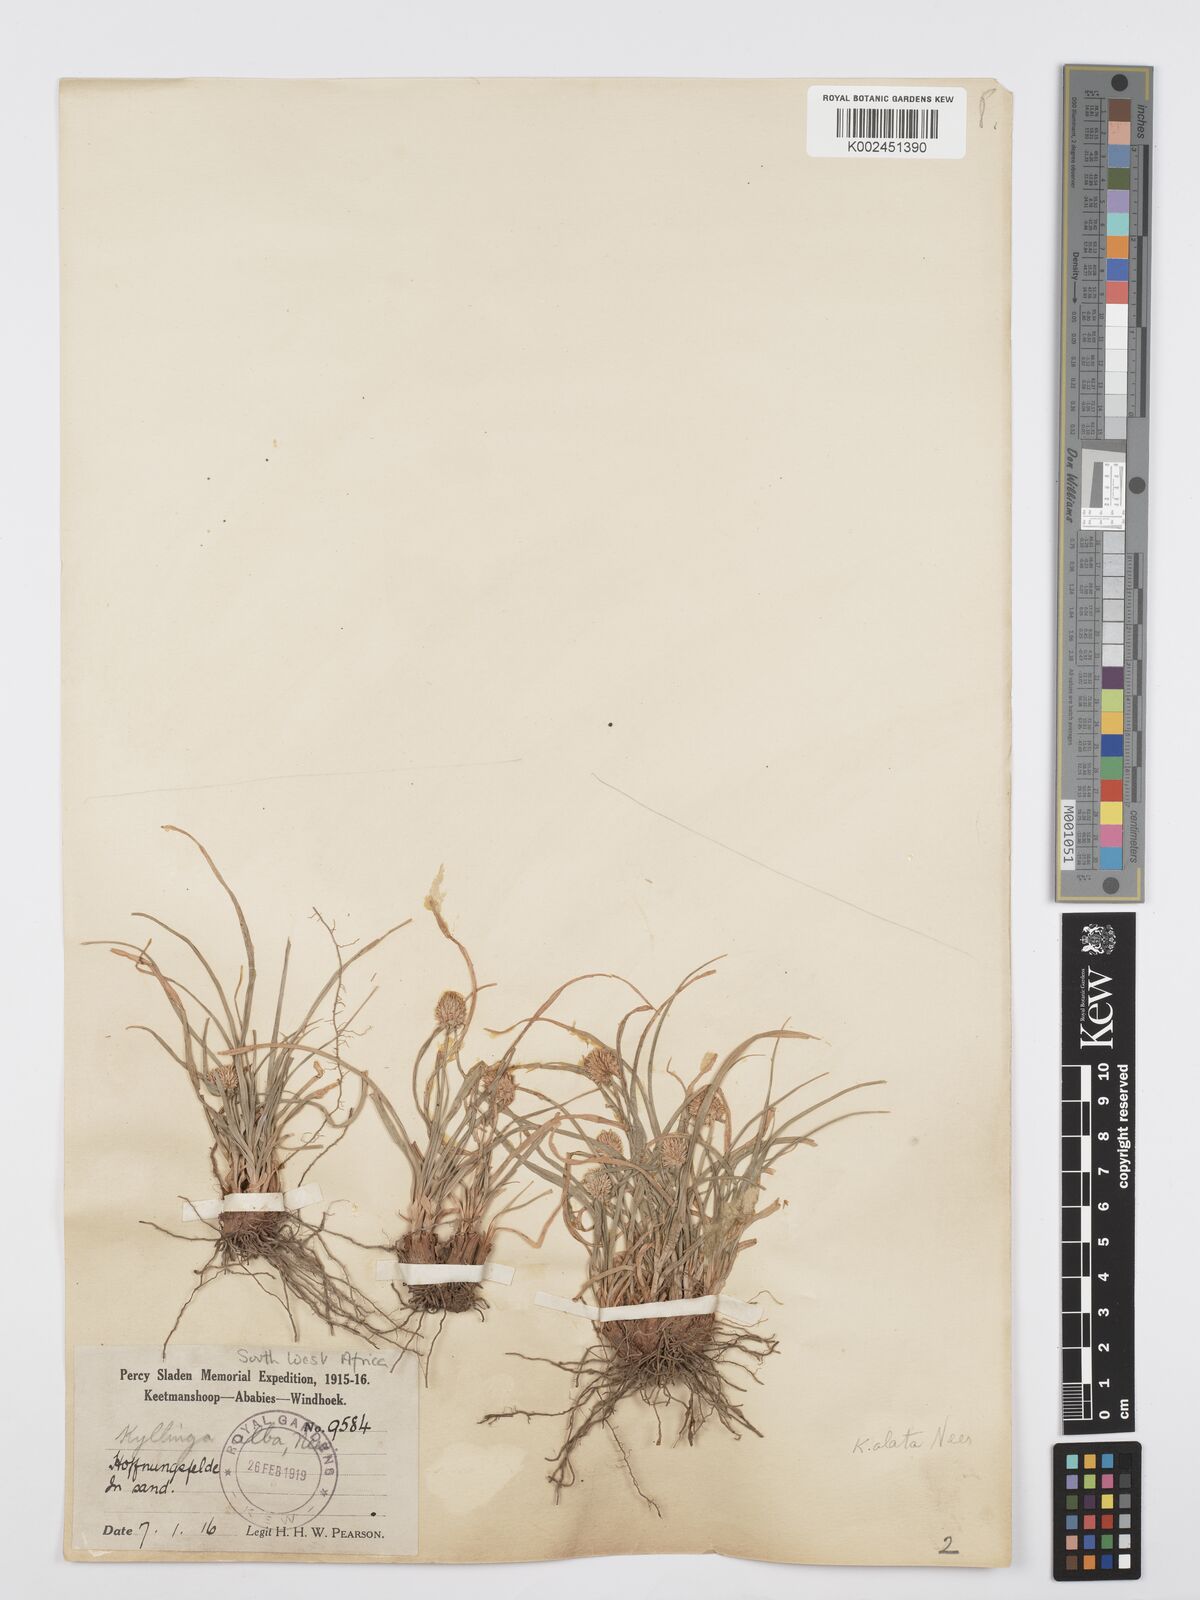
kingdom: Plantae
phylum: Tracheophyta
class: Liliopsida
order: Poales
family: Cyperaceae
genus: Cyperus
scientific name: Cyperus alatus
